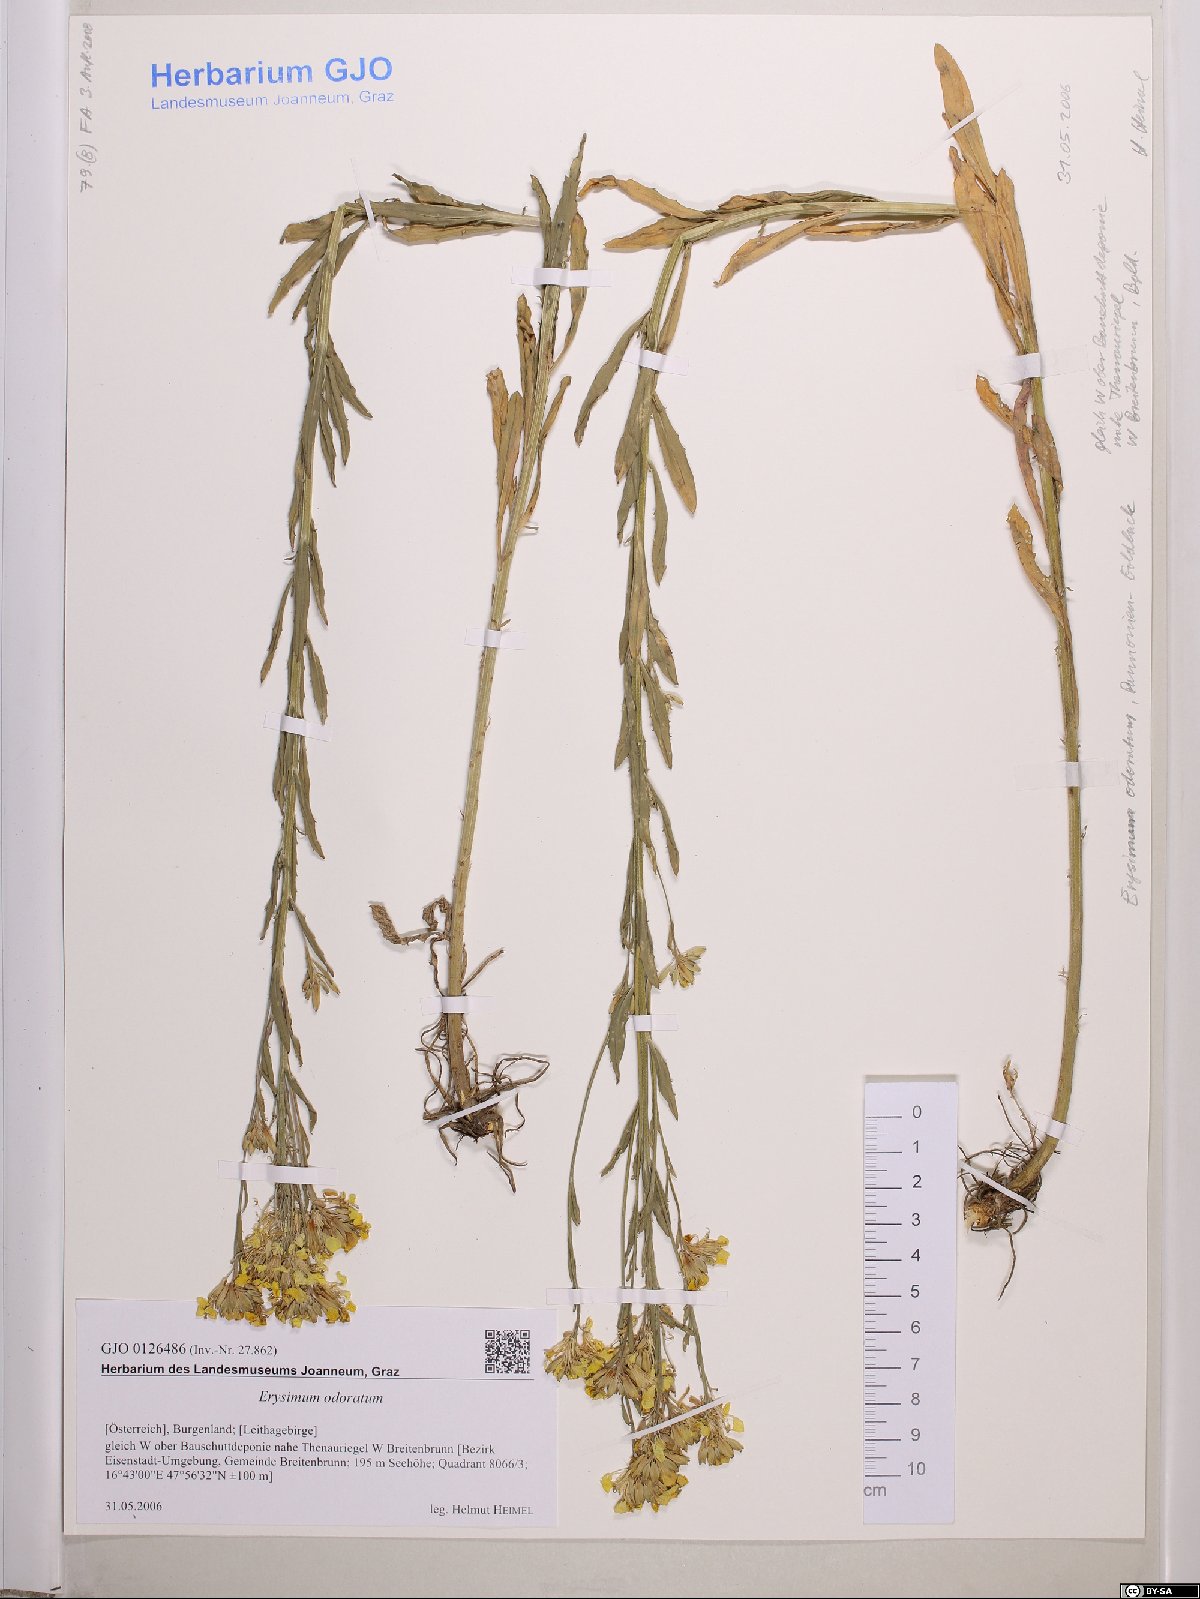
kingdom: Plantae
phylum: Tracheophyta
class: Magnoliopsida
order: Brassicales
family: Brassicaceae
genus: Erysimum
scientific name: Erysimum odoratum
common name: Smelly wallflower
